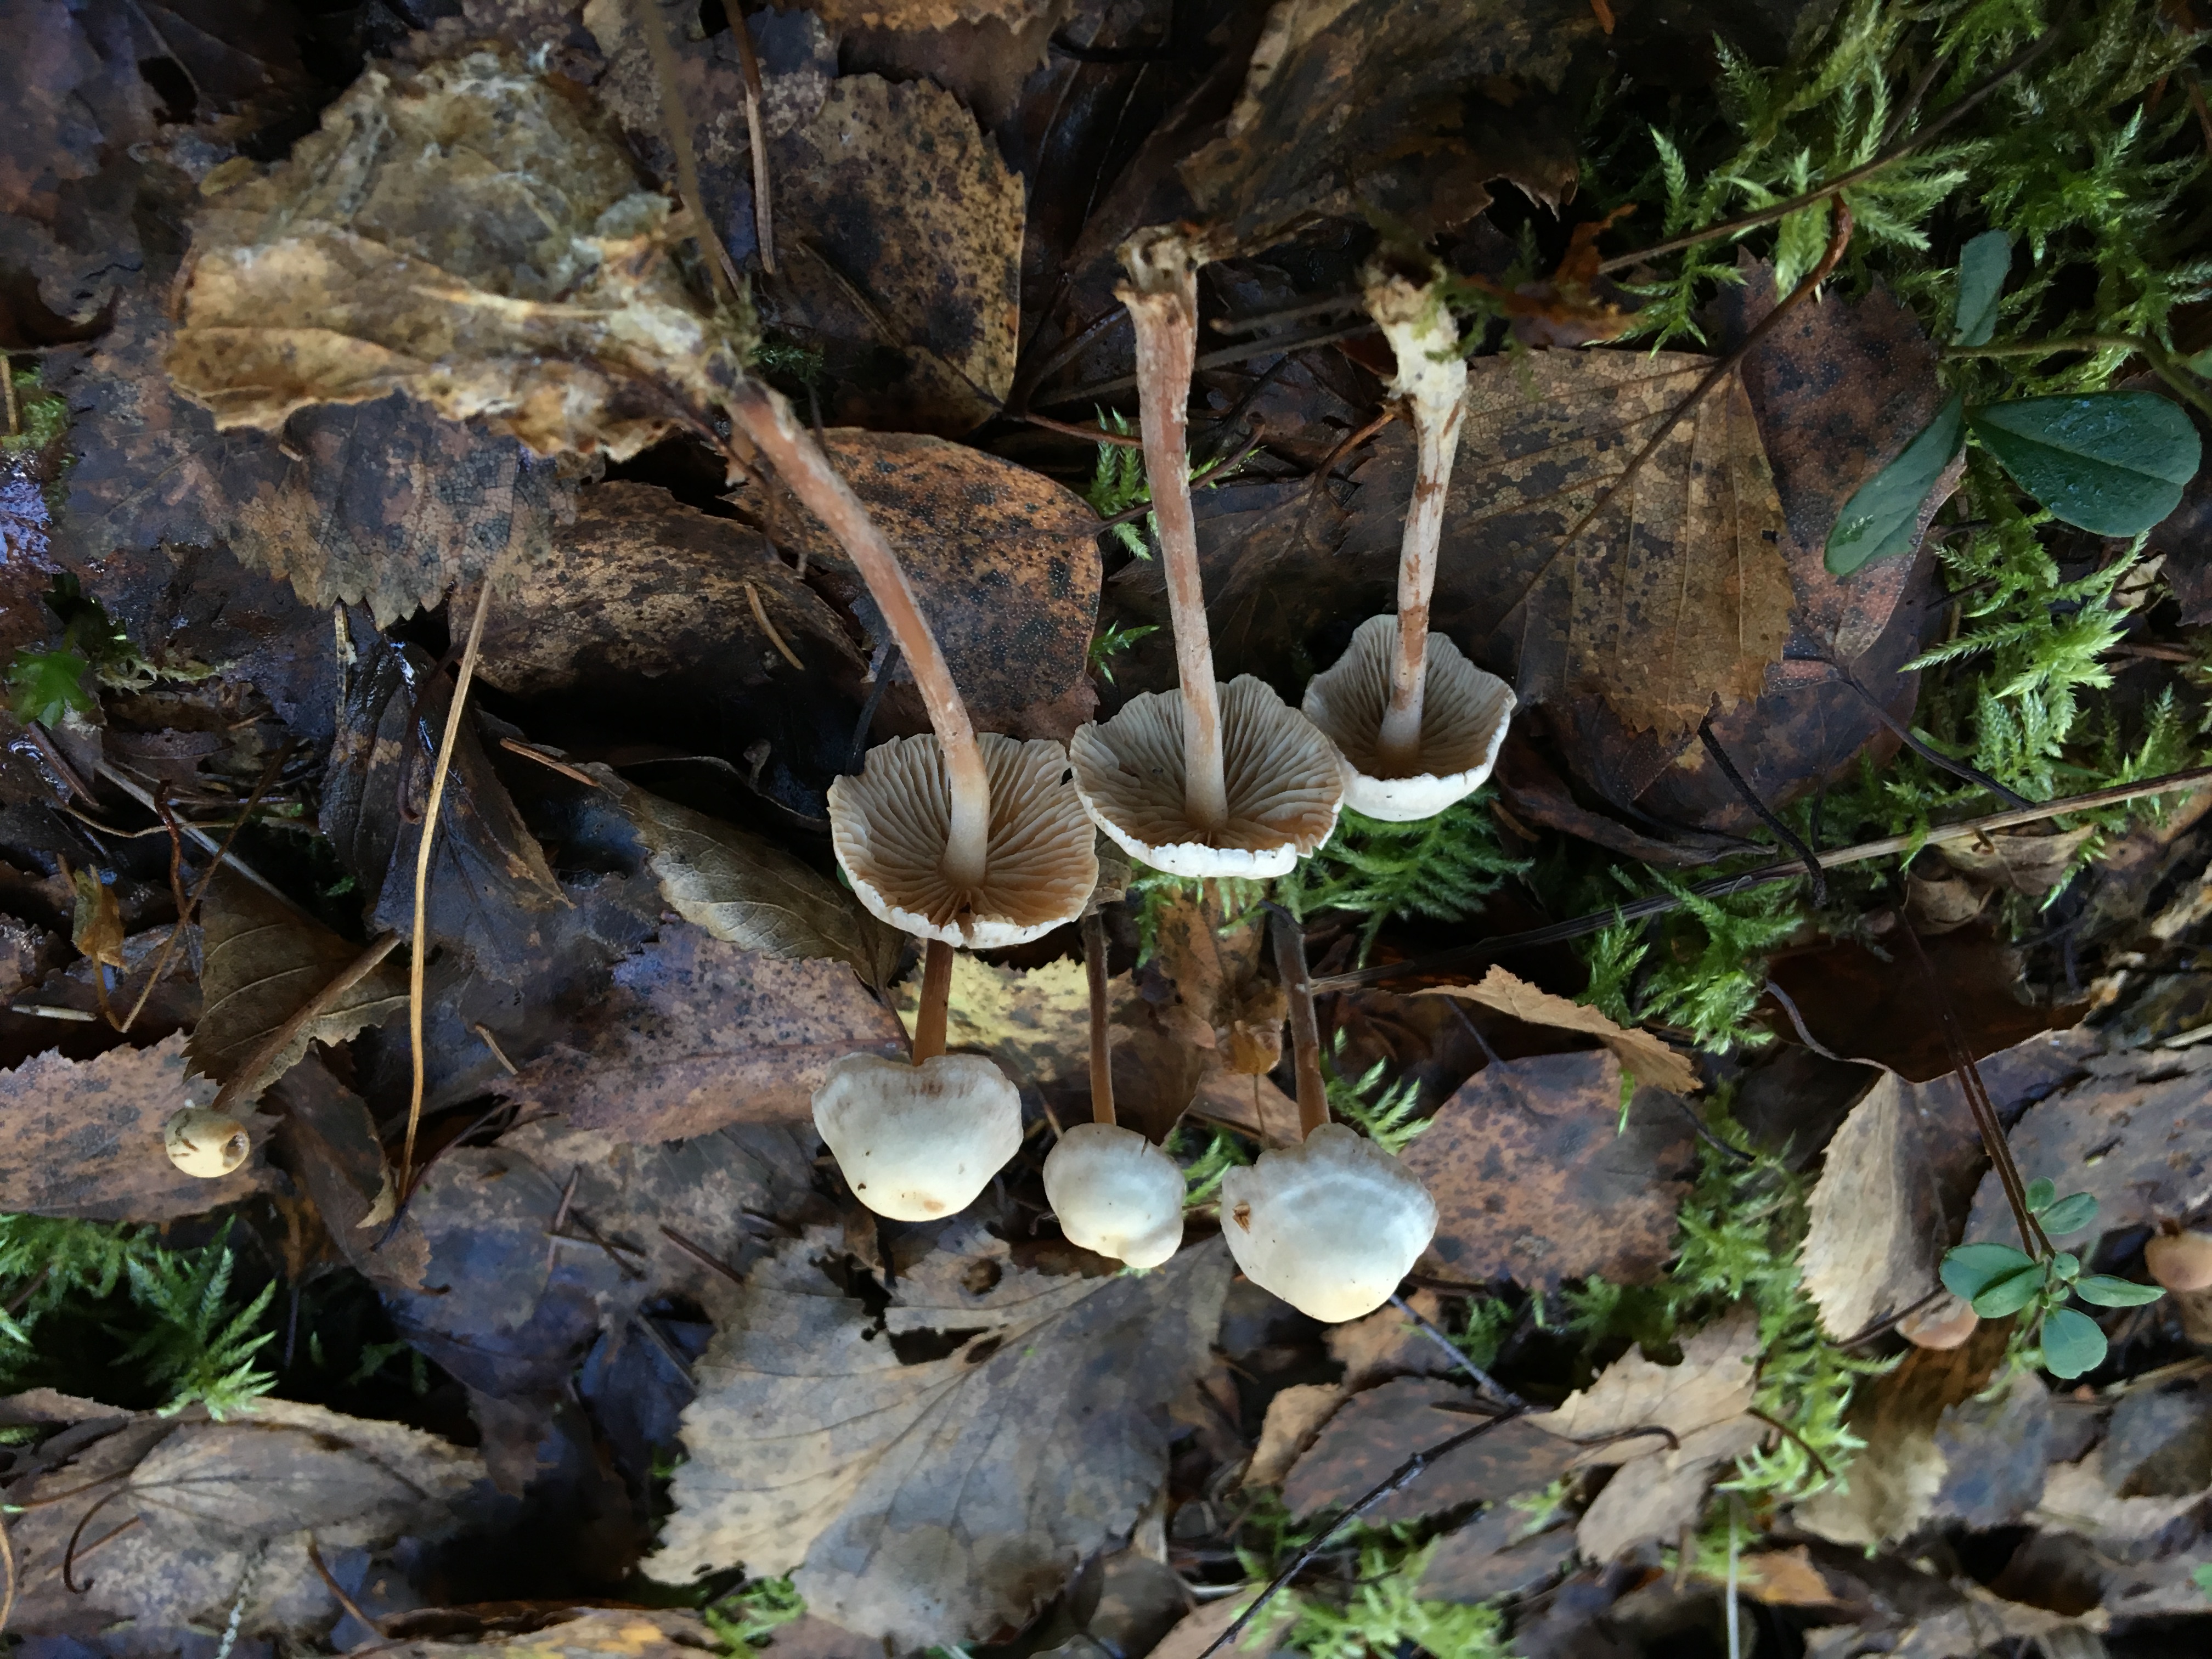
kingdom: Fungi
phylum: Basidiomycota
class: Agaricomycetes
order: Agaricales
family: Omphalotaceae
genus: Collybiopsis
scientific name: Collybiopsis confluens
